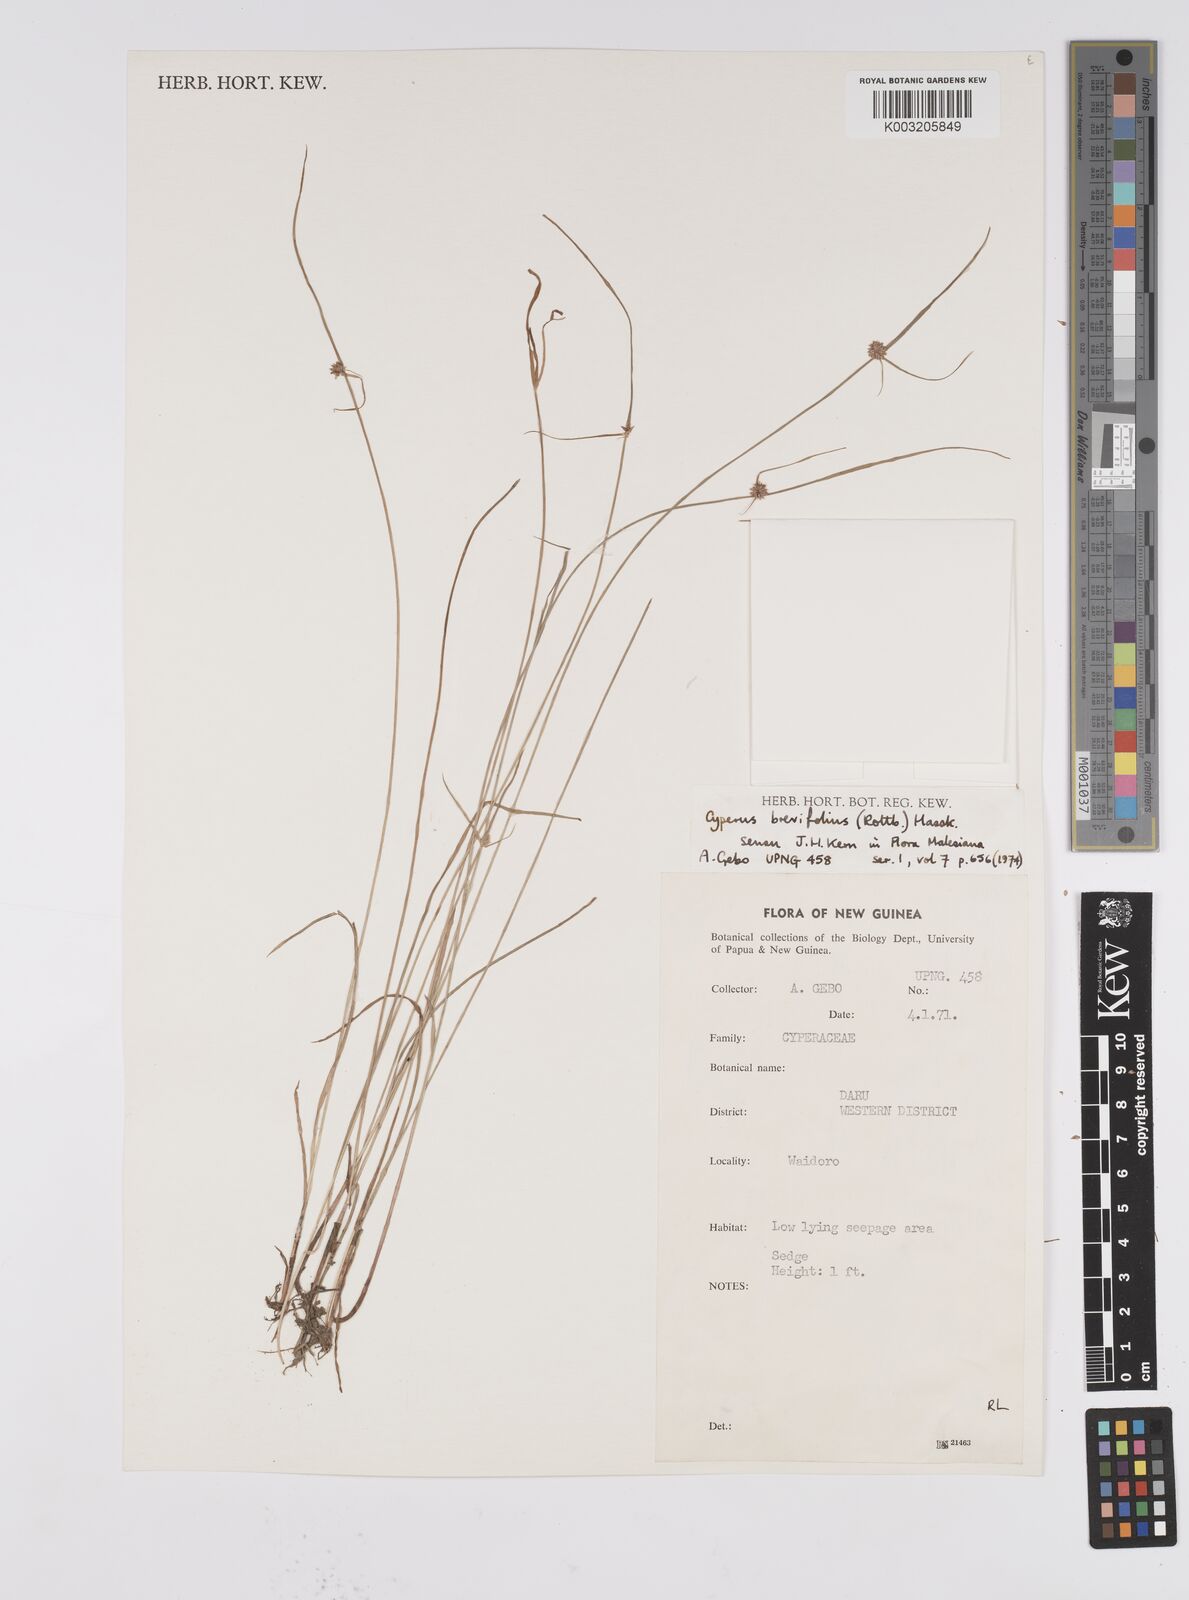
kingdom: Plantae
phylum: Tracheophyta
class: Liliopsida
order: Poales
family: Cyperaceae
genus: Cyperus
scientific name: Cyperus brevifolius
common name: Globe kyllinga
